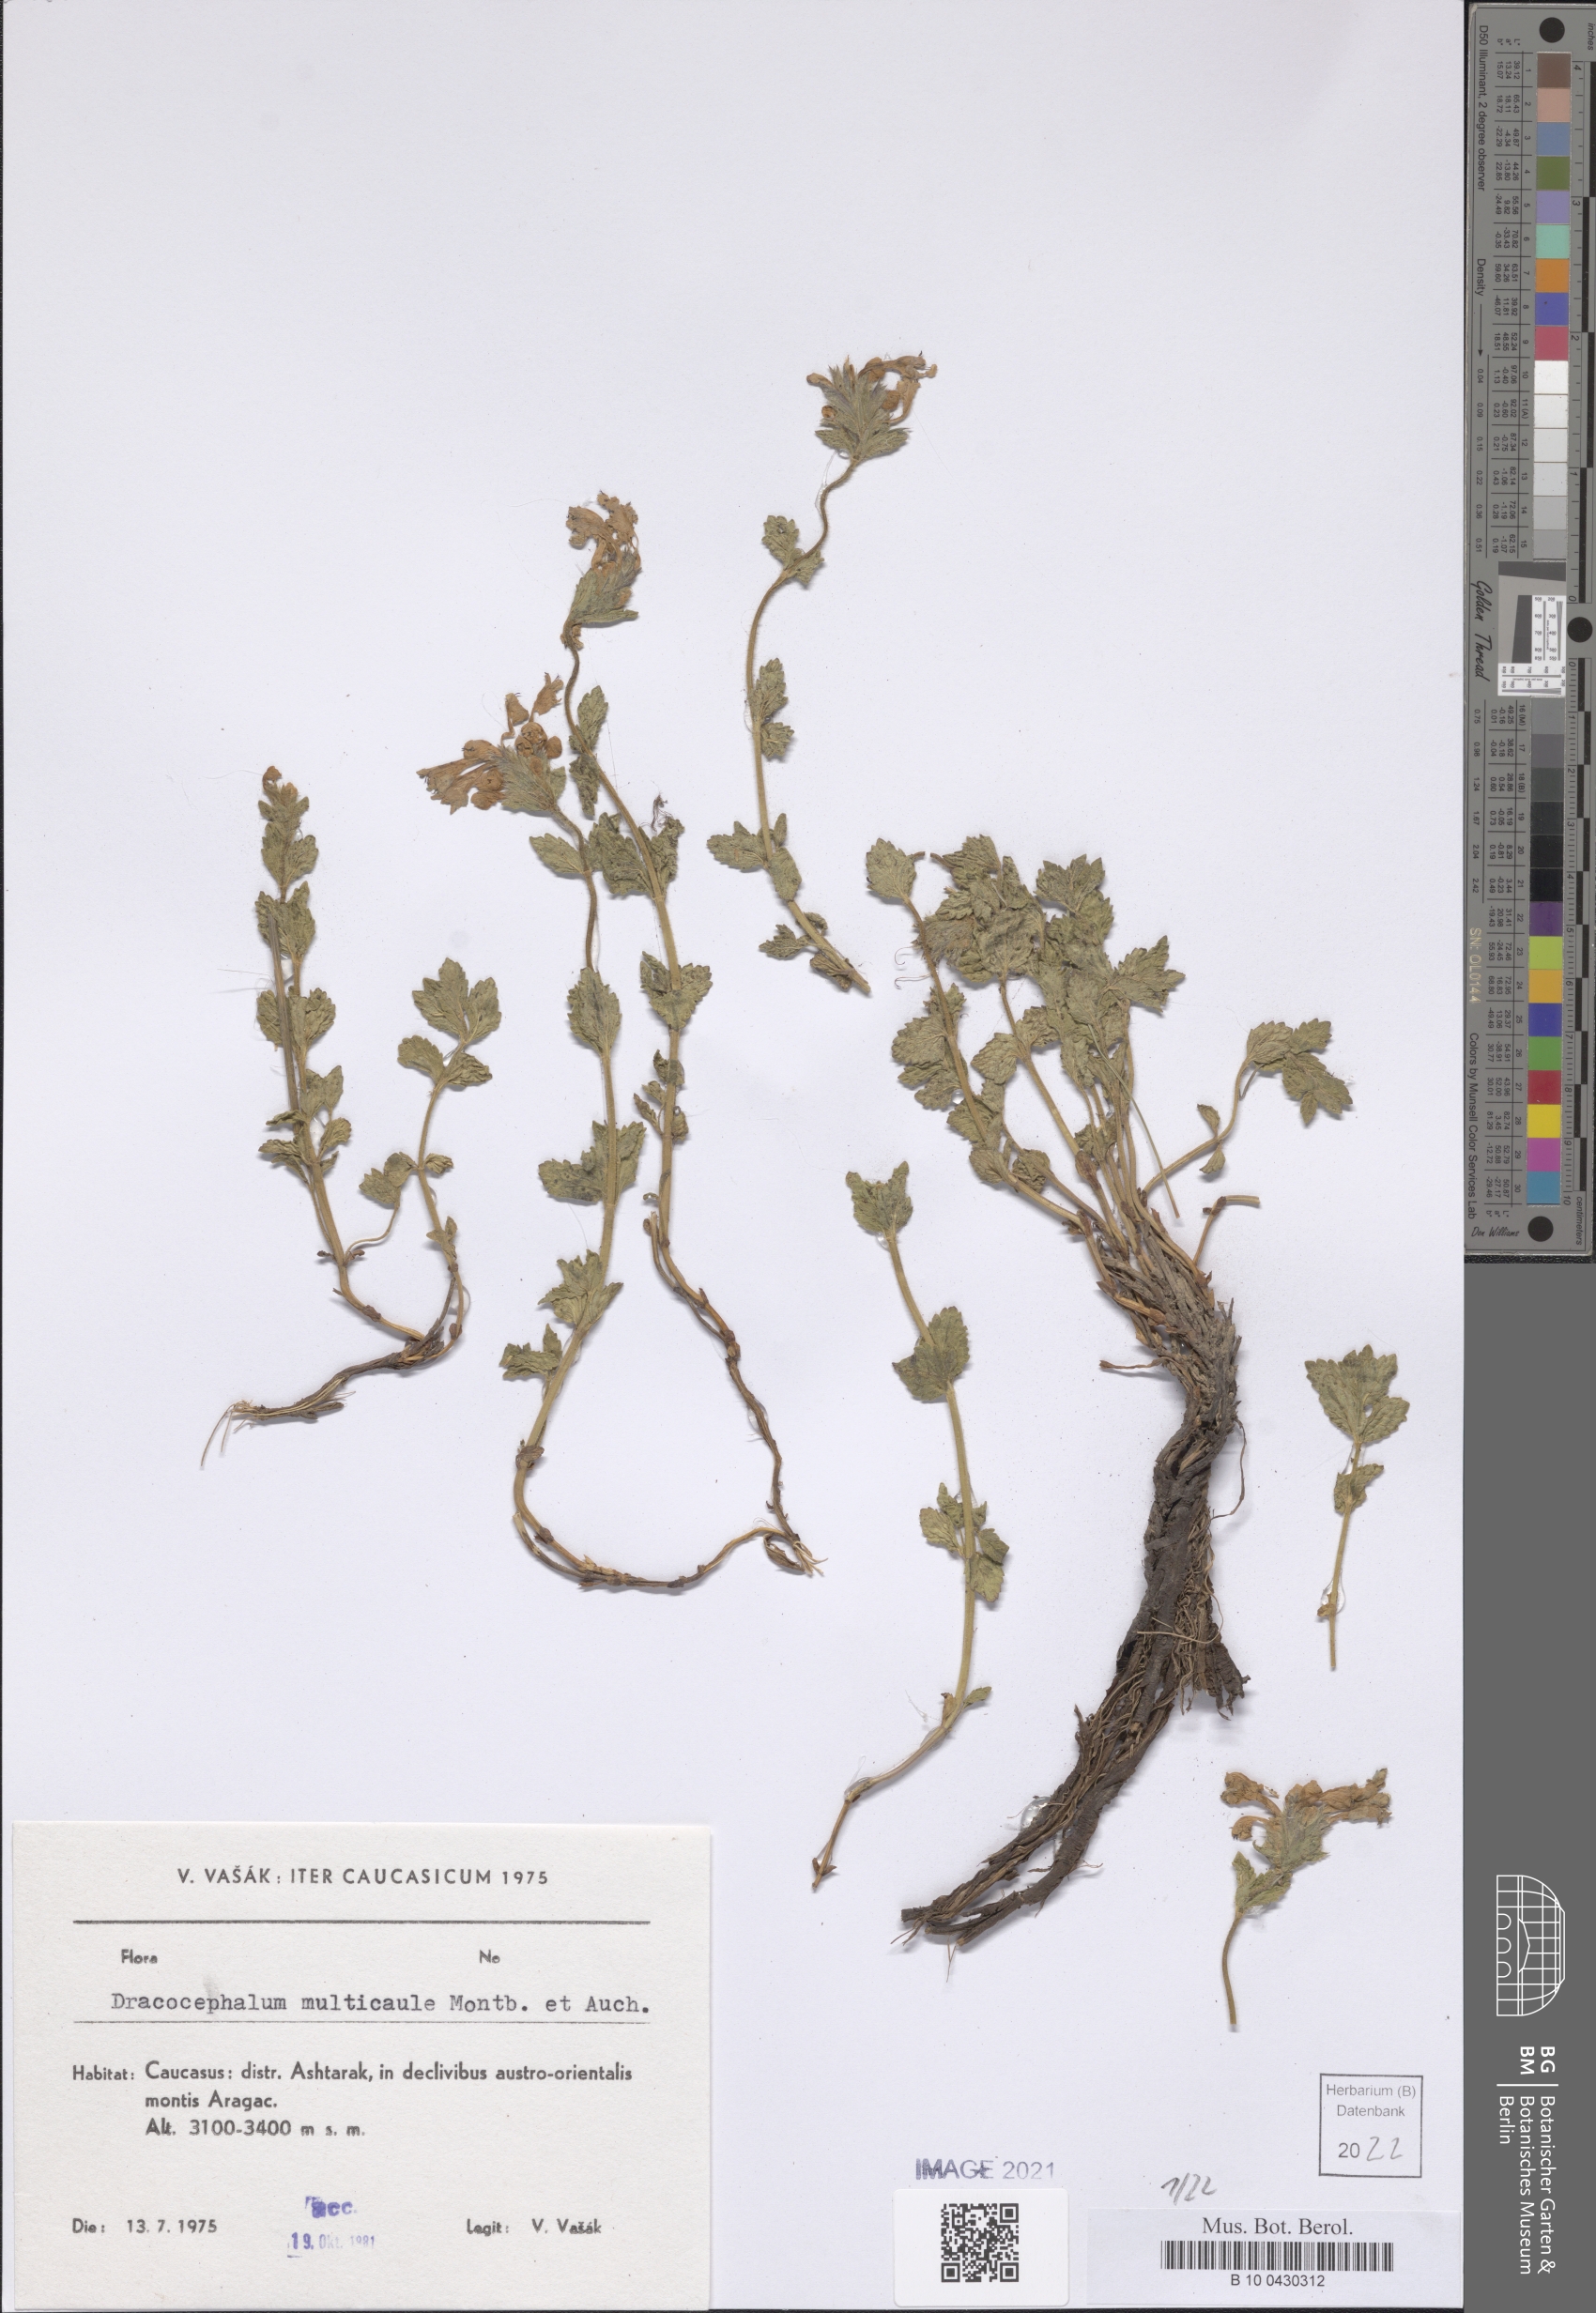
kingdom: Plantae
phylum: Tracheophyta
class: Magnoliopsida
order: Lamiales
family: Lamiaceae
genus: Dracocephalum
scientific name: Dracocephalum multicaule
